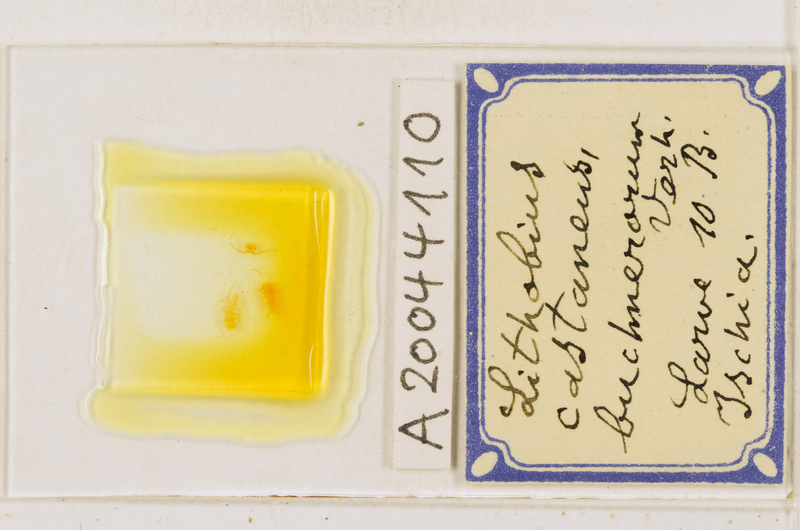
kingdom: Animalia
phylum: Arthropoda
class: Chilopoda
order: Lithobiomorpha
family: Lithobiidae
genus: Lithobius
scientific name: Lithobius castaneus
